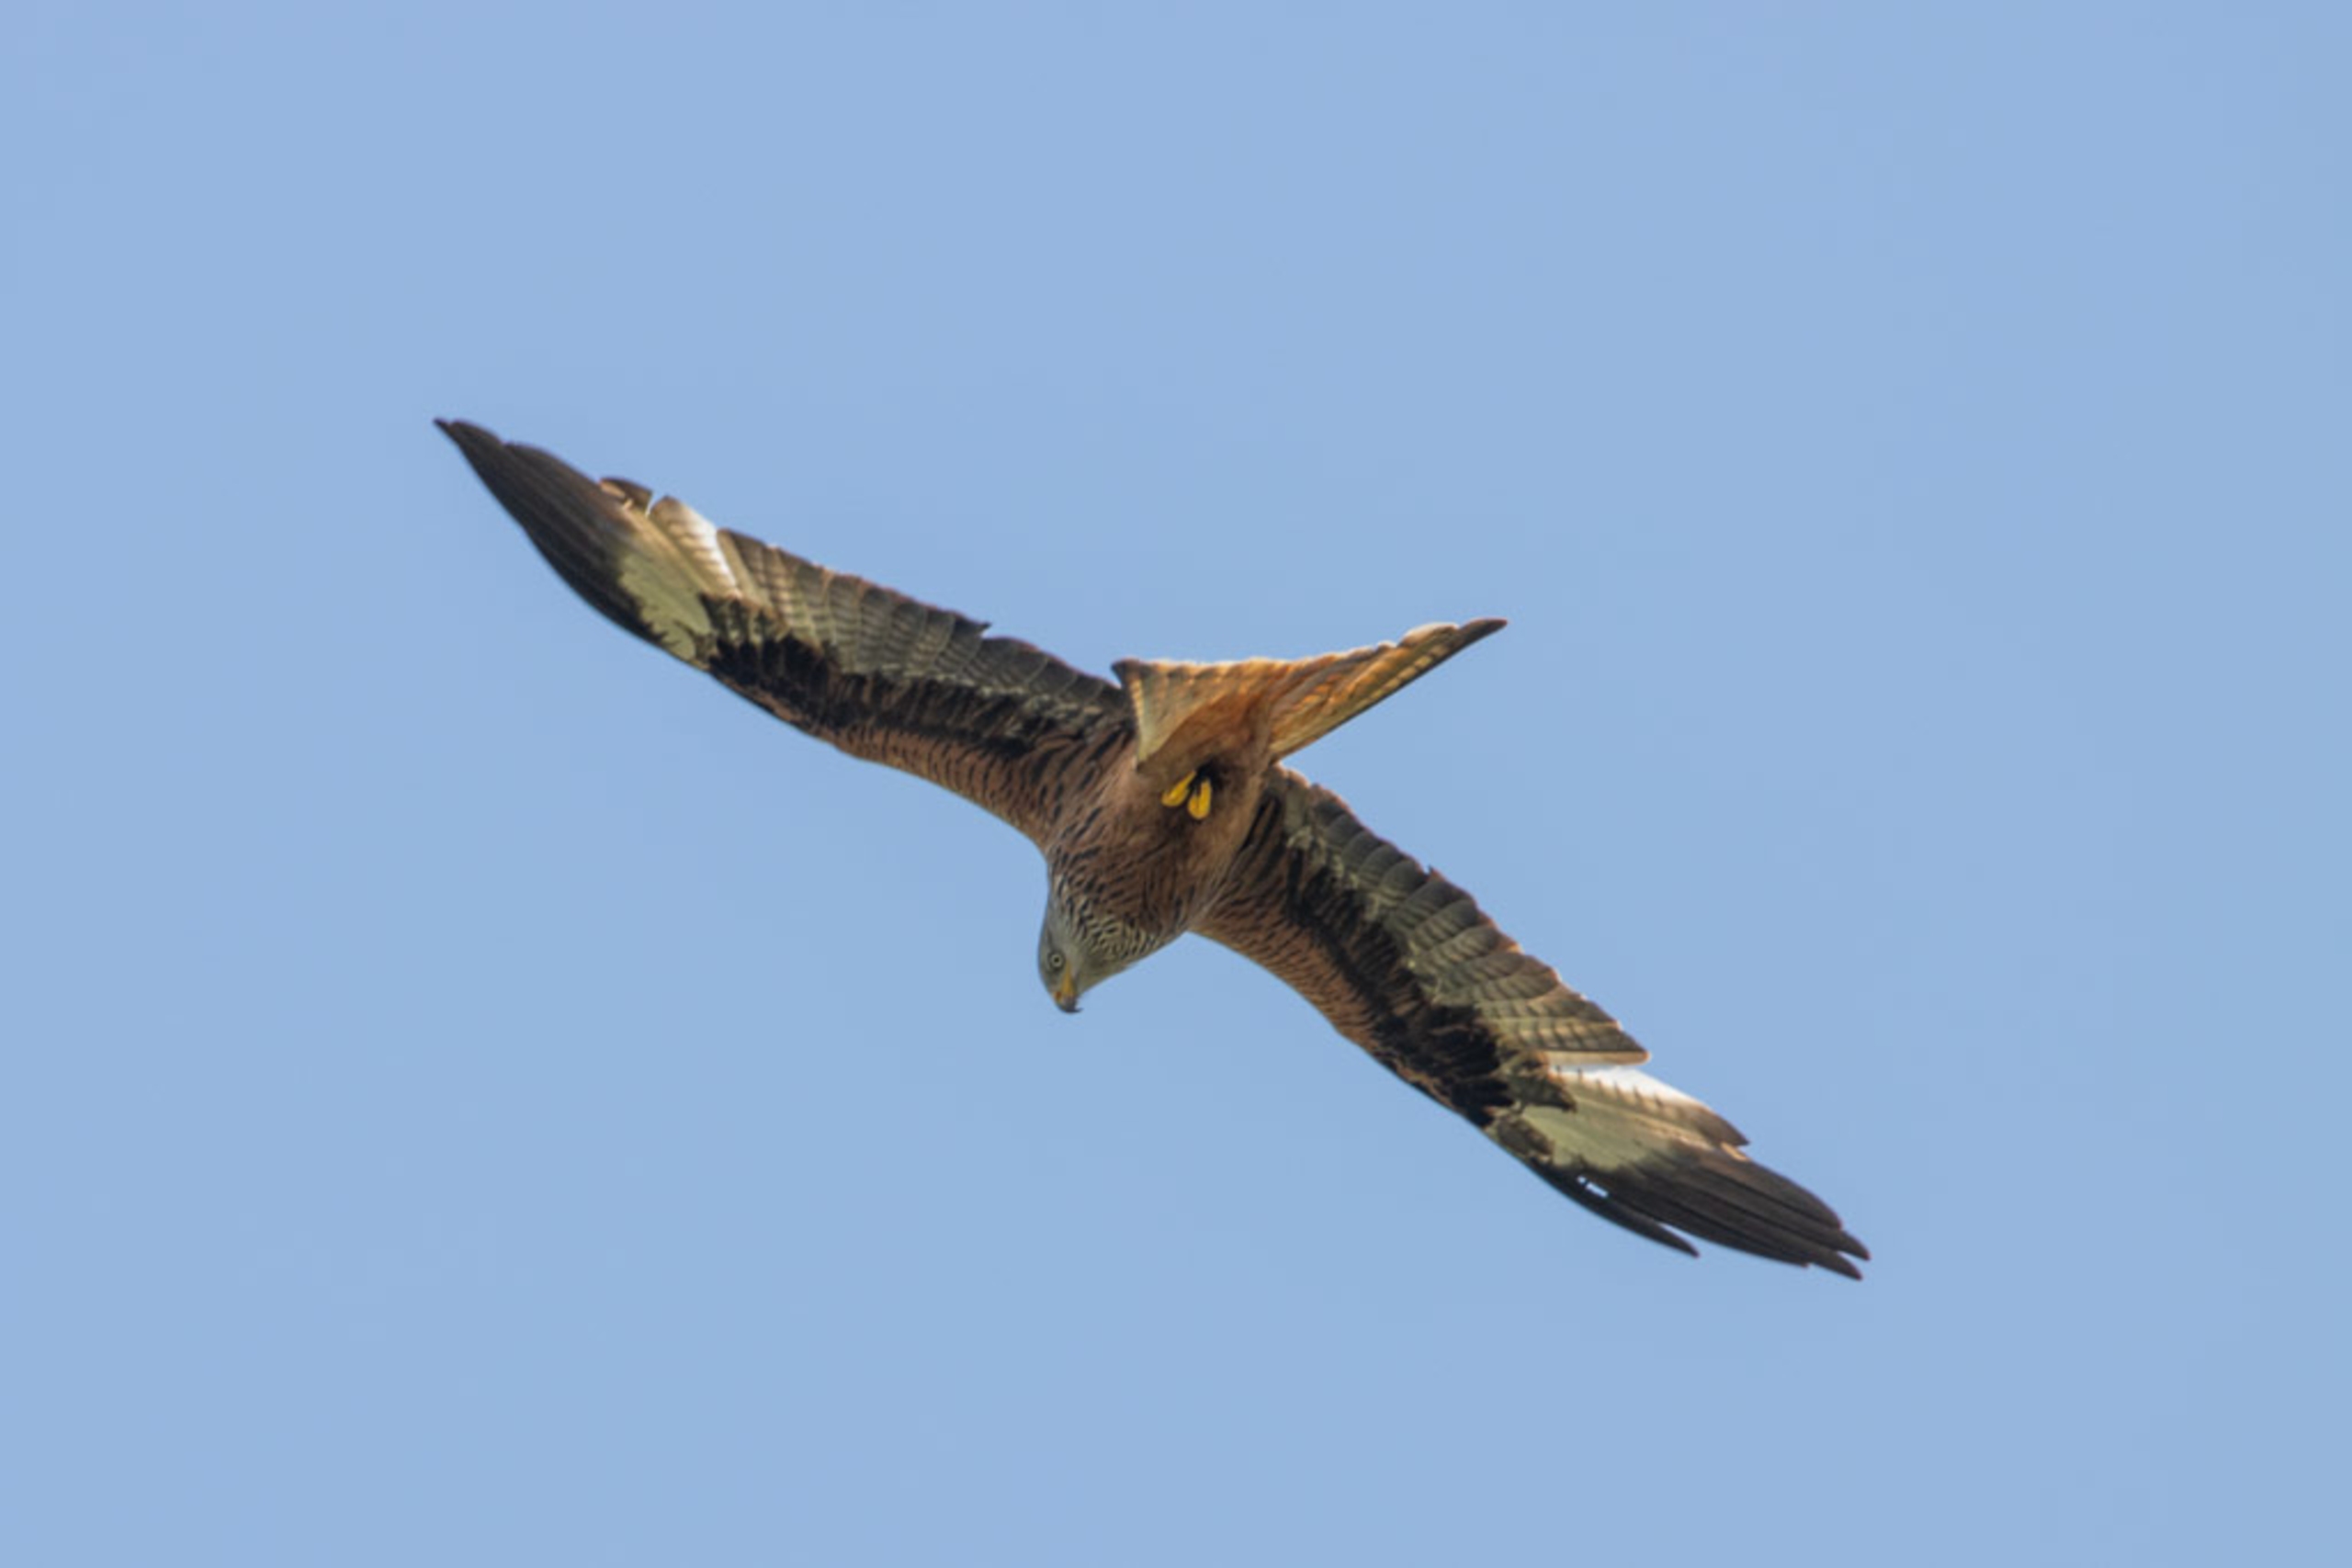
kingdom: Animalia
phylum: Chordata
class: Aves
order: Accipitriformes
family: Accipitridae
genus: Milvus
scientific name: Milvus milvus
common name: Rød glente
